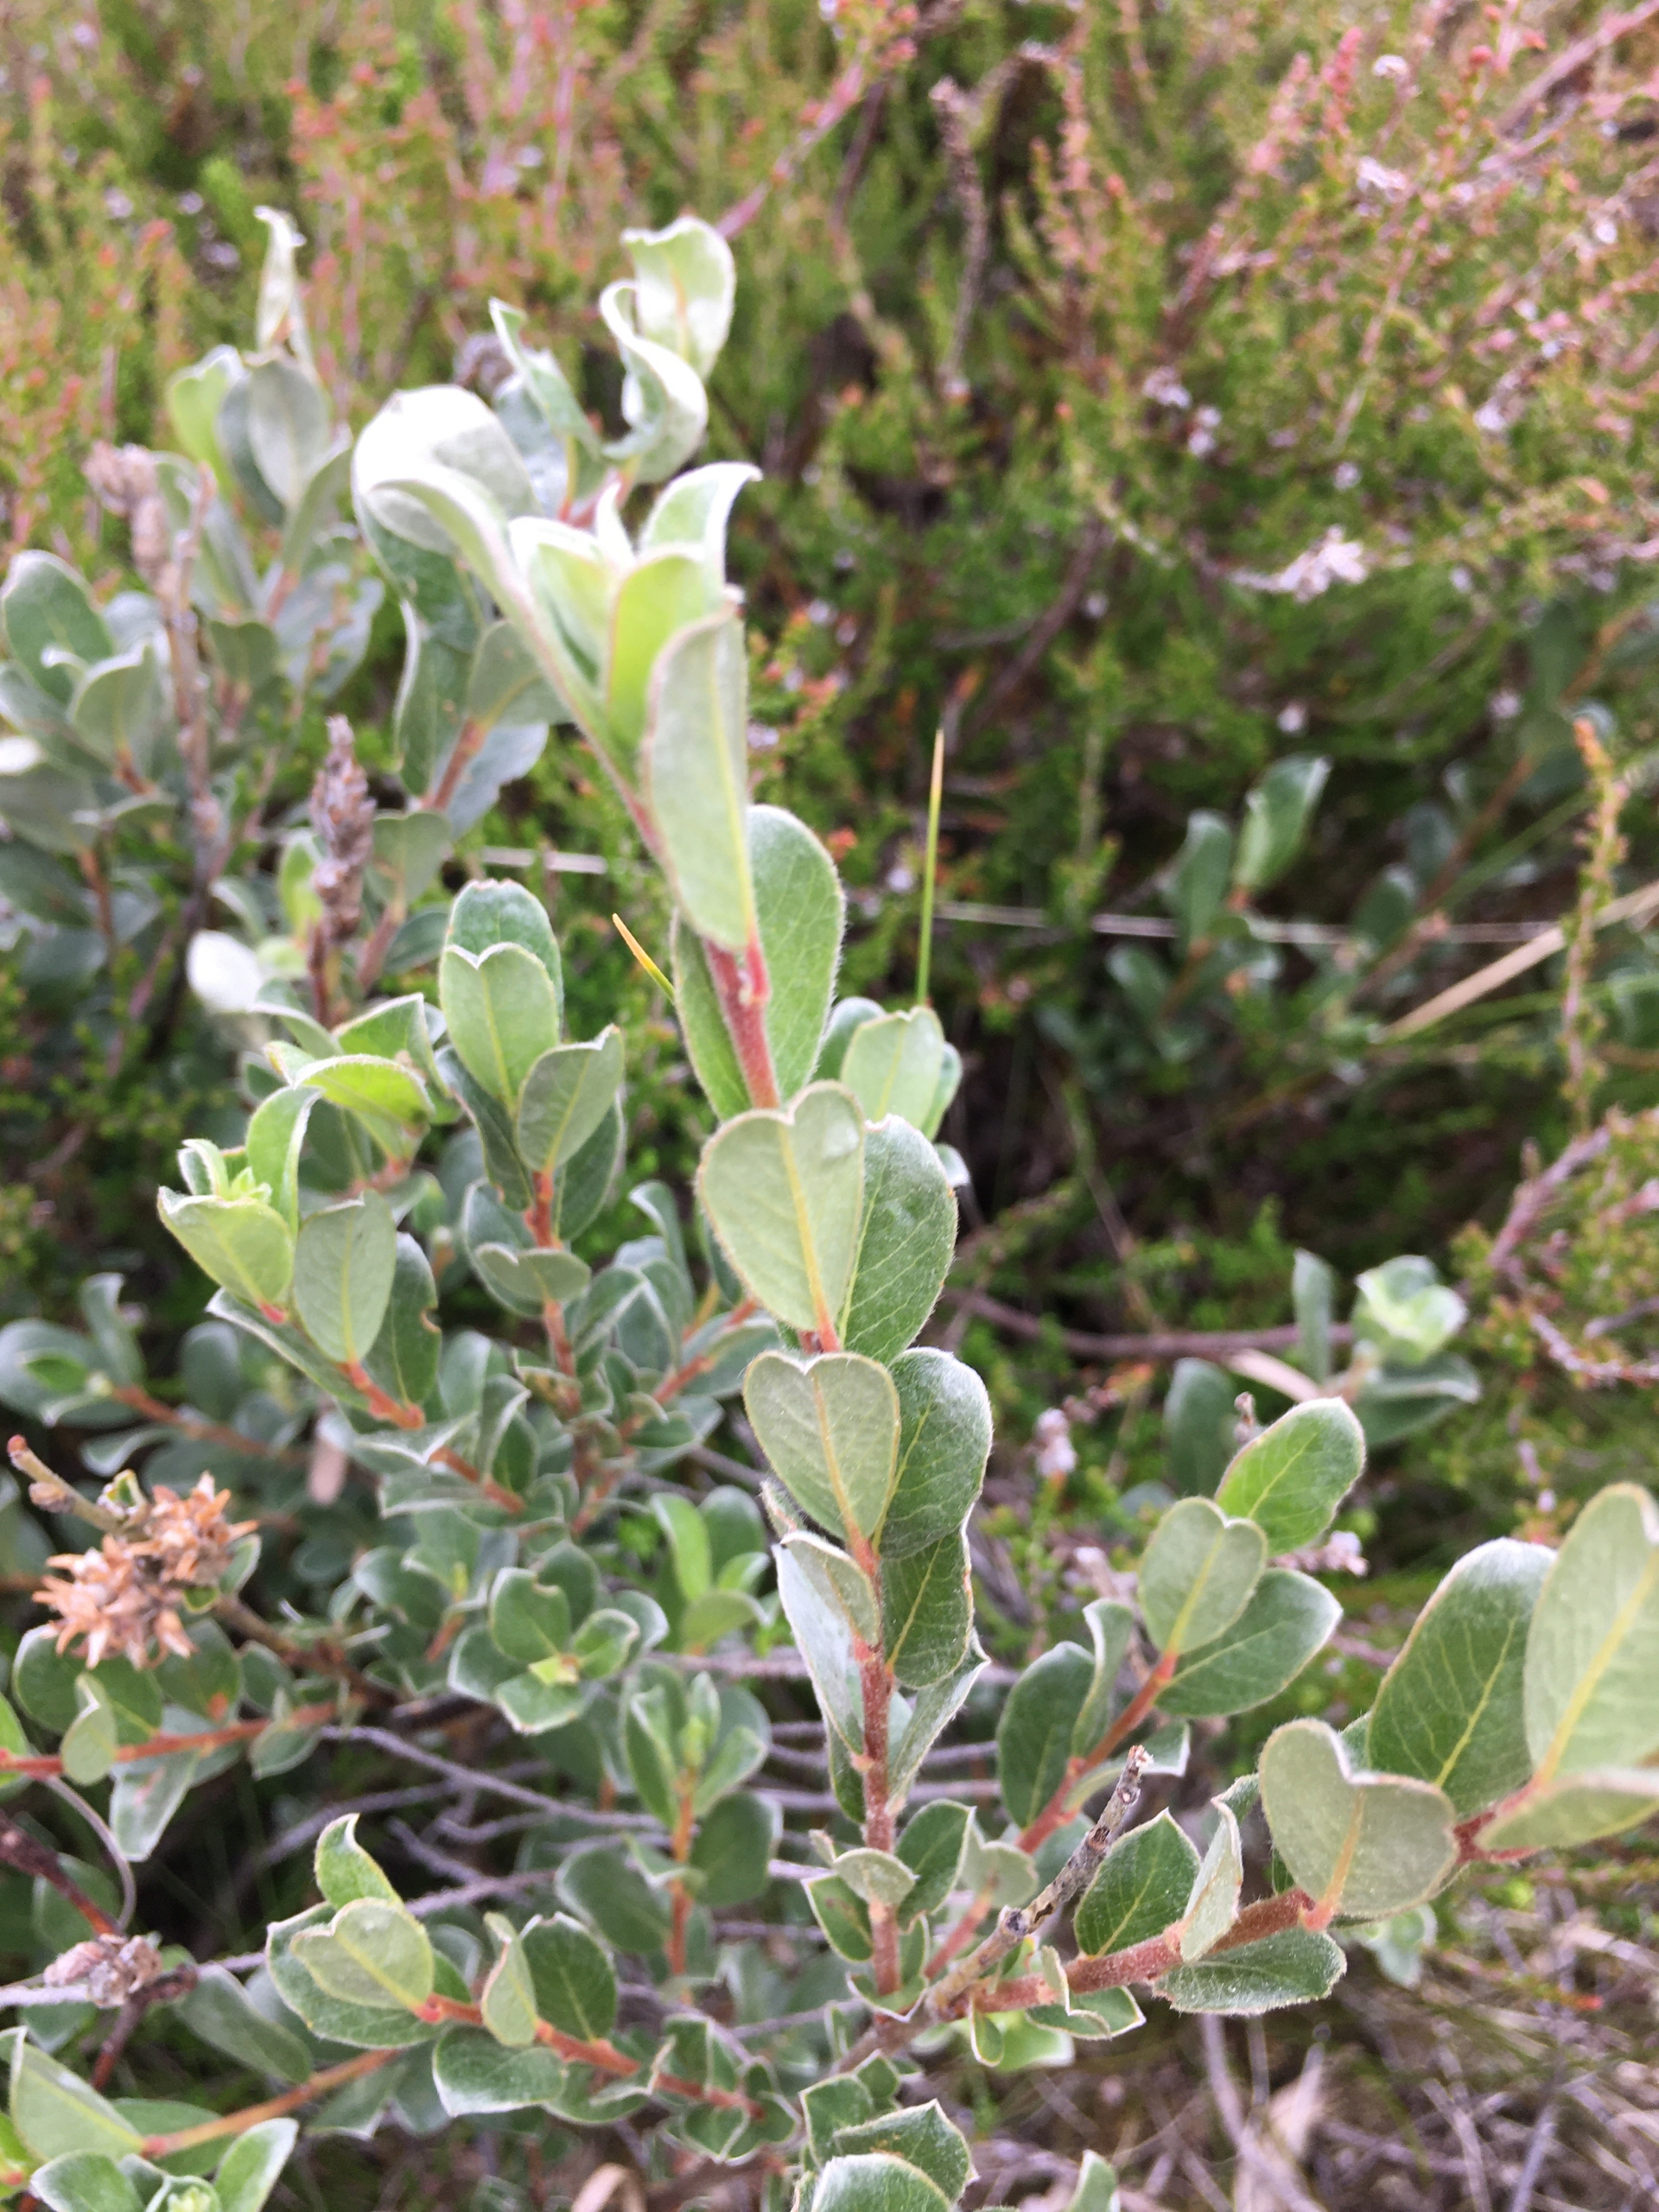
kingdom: Plantae
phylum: Tracheophyta
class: Magnoliopsida
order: Malpighiales
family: Salicaceae
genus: Salix
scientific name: Salix repens
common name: Gråris
